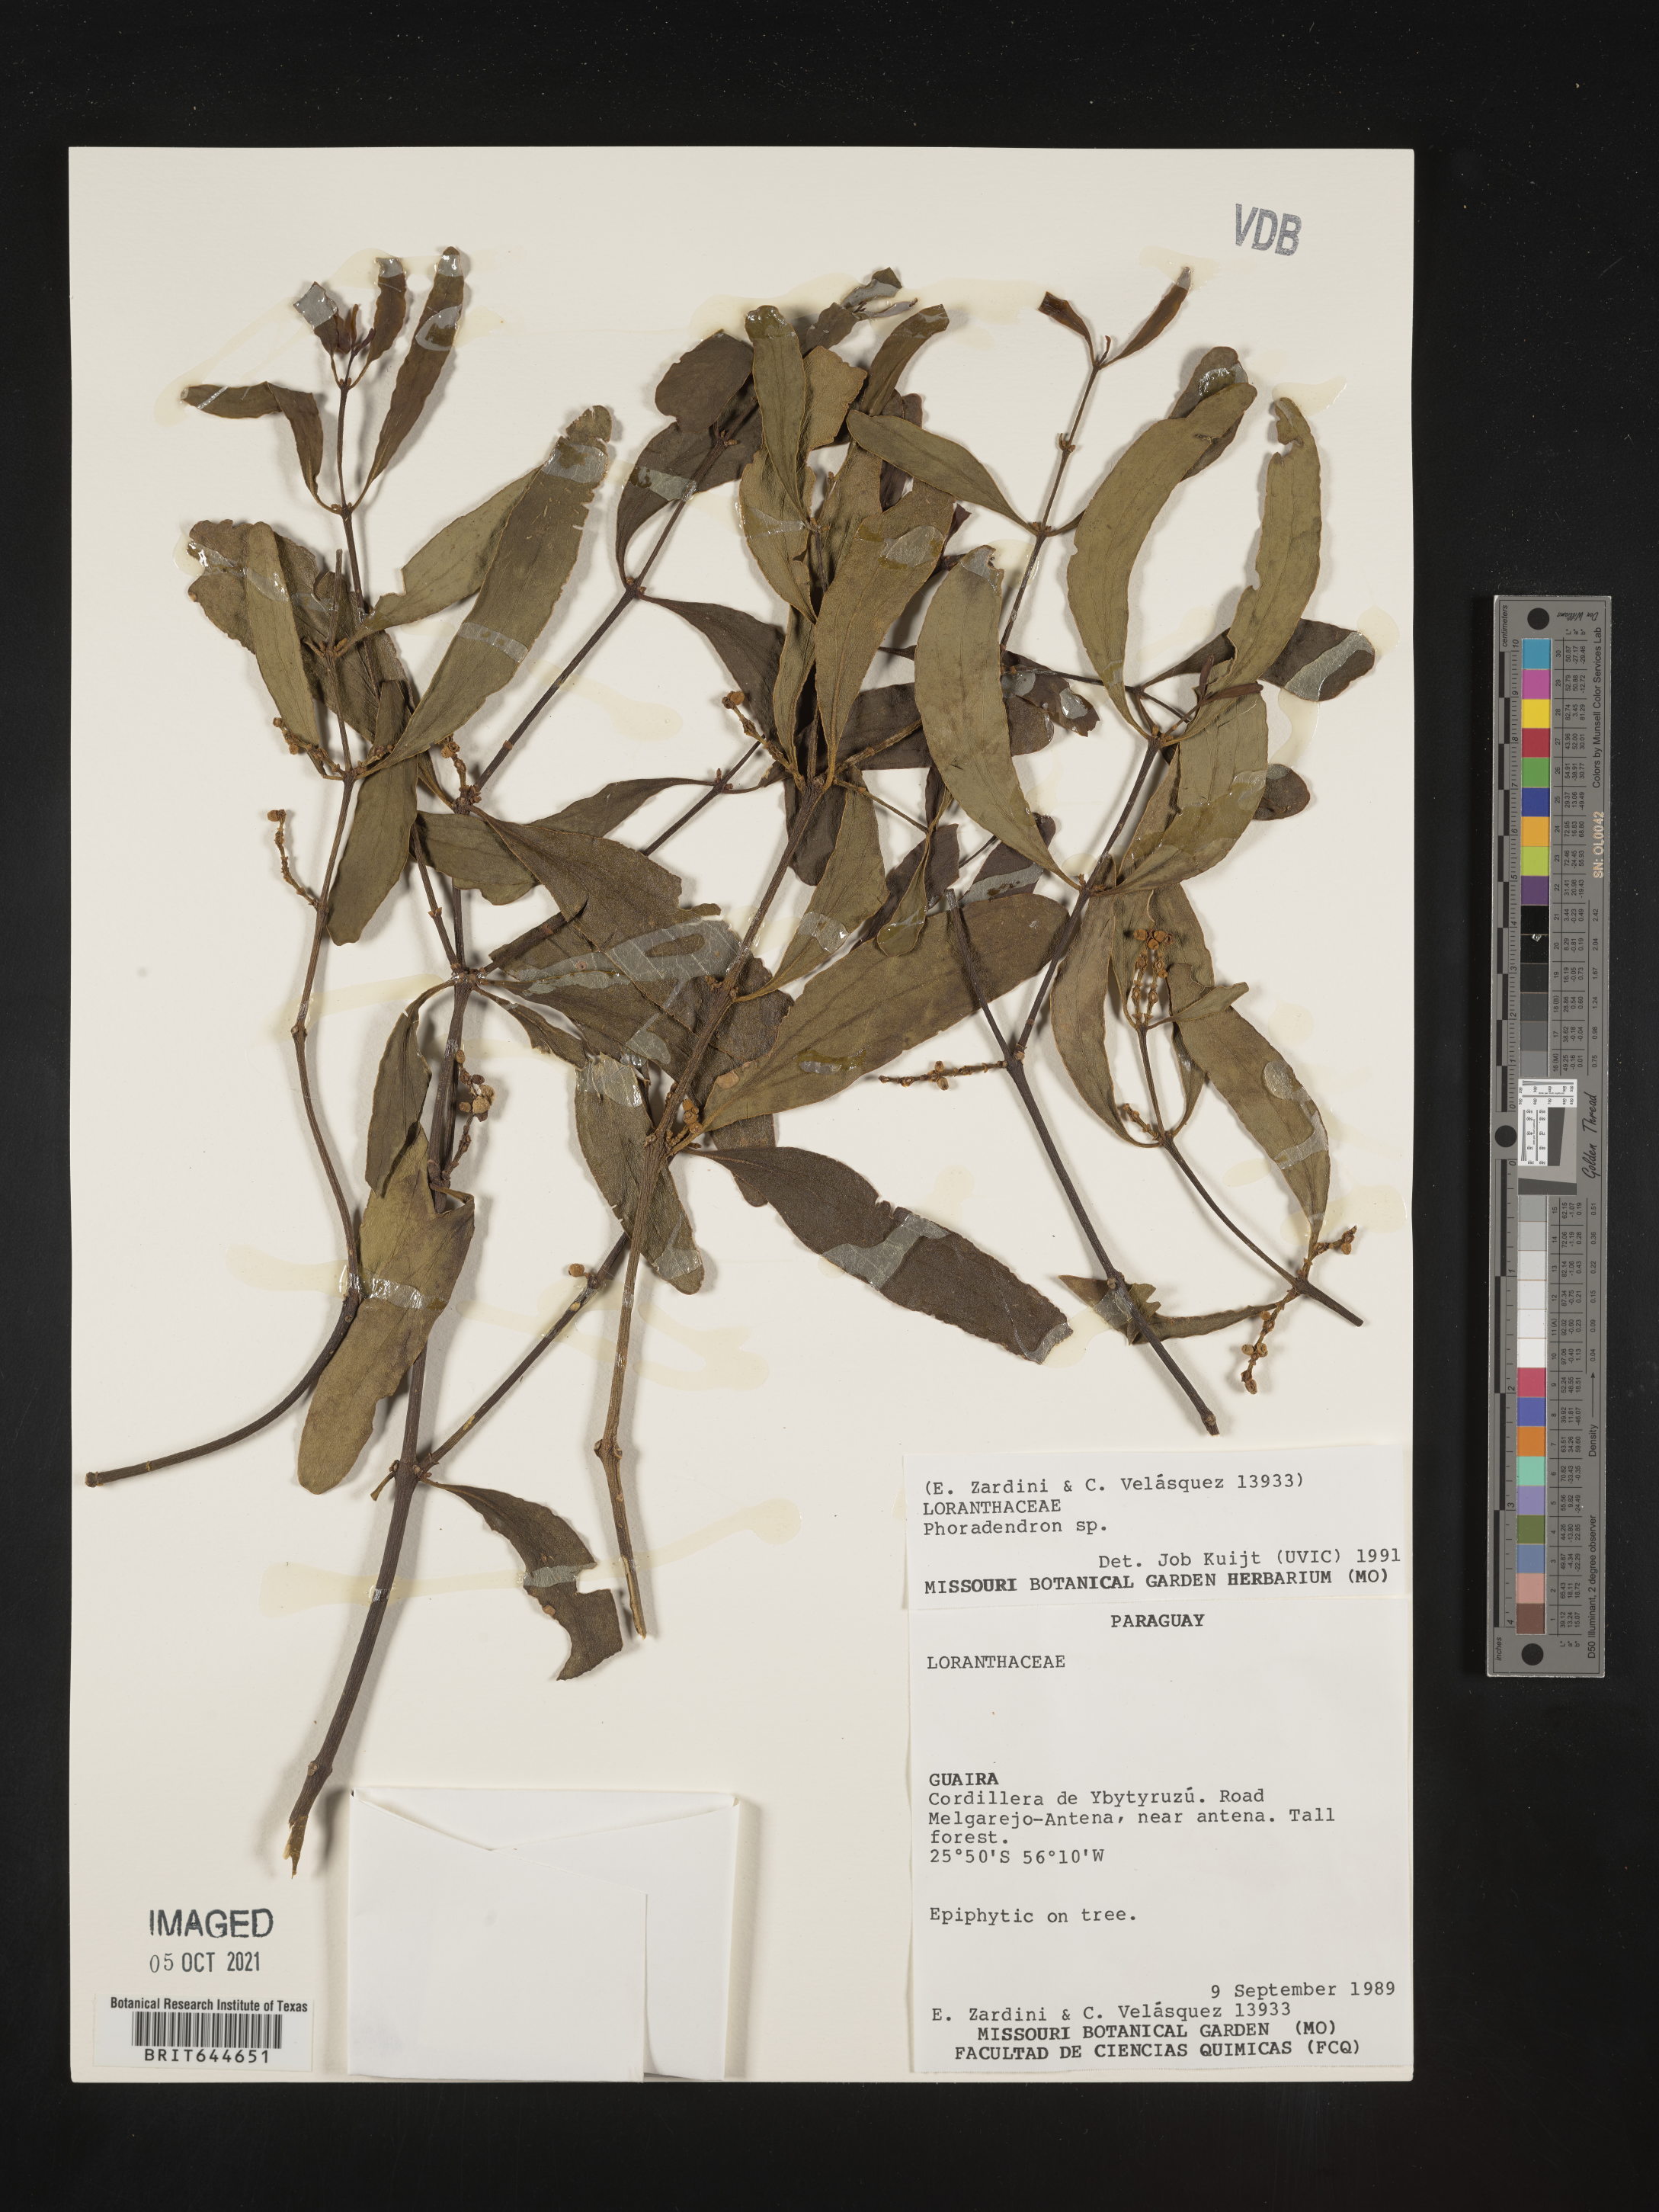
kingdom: Plantae
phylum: Tracheophyta
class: Magnoliopsida
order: Santalales
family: Viscaceae
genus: Phoradendron
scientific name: Phoradendron
